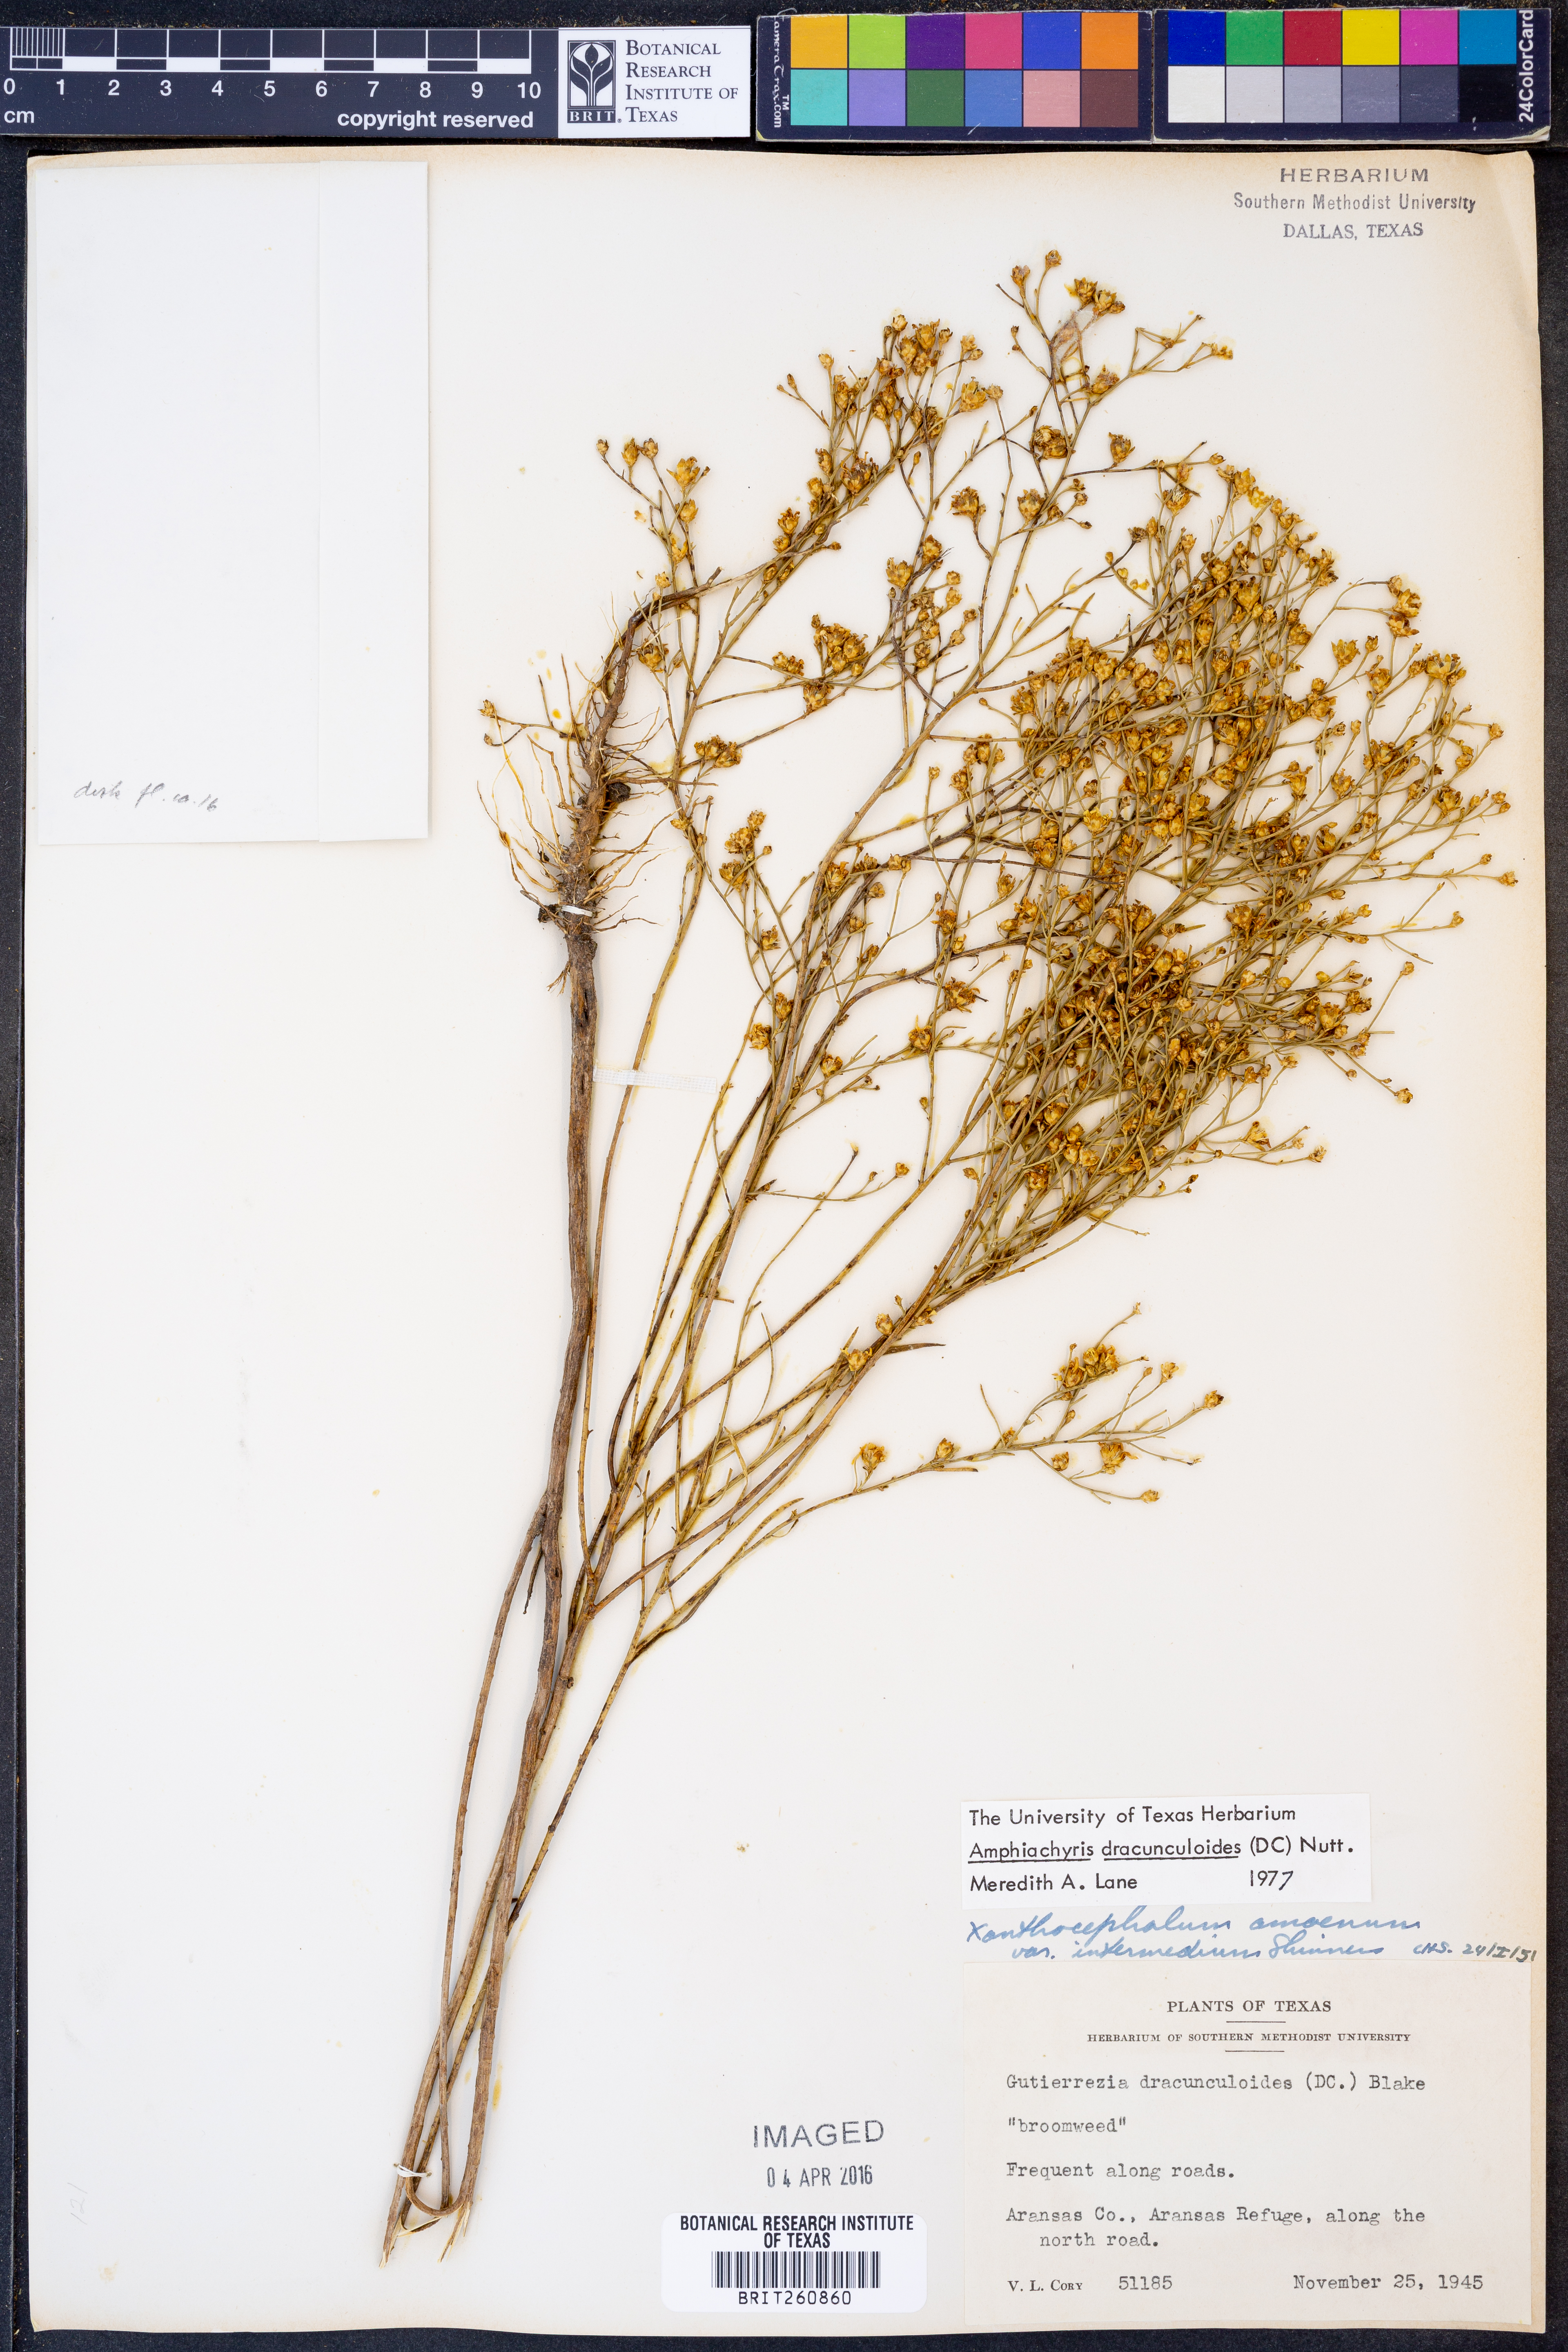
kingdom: Plantae
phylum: Tracheophyta
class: Magnoliopsida
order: Asterales
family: Asteraceae
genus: Amphiachyris
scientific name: Amphiachyris dracunculoides
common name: Broomweed
